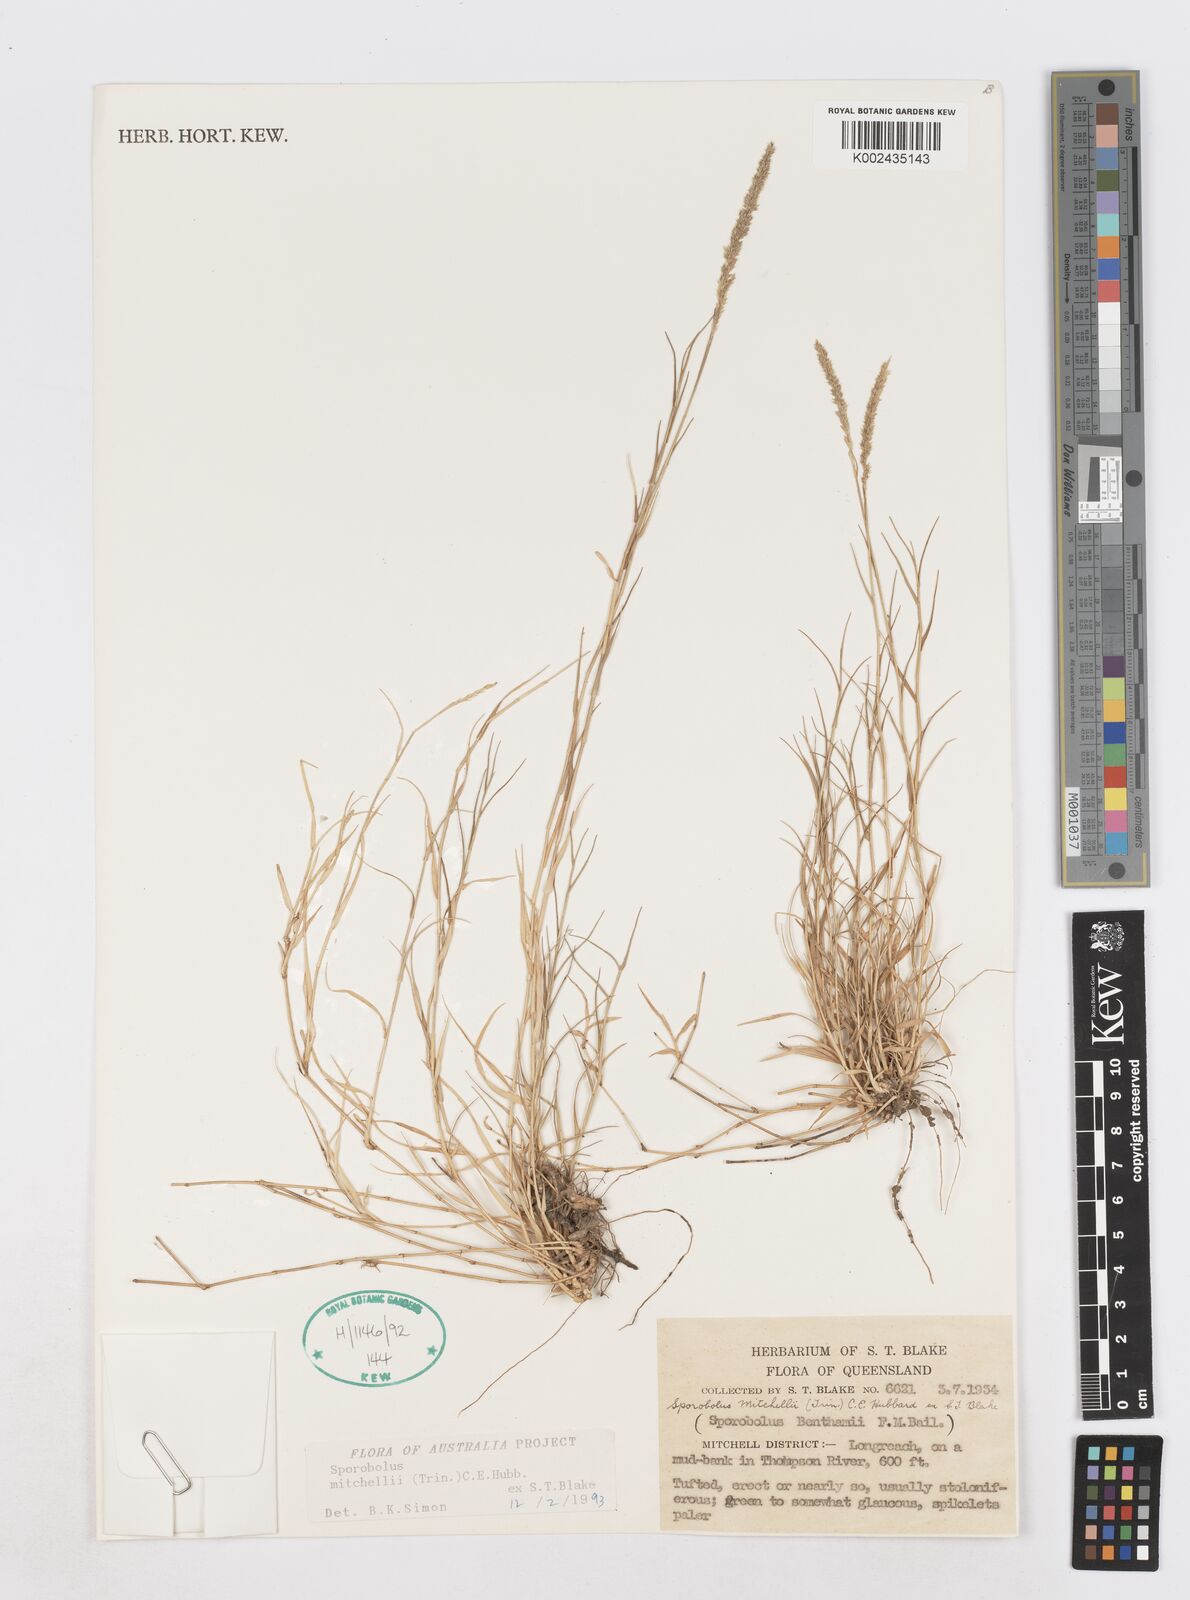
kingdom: Plantae
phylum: Tracheophyta
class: Liliopsida
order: Poales
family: Poaceae
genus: Sporobolus
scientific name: Sporobolus mitchellii
